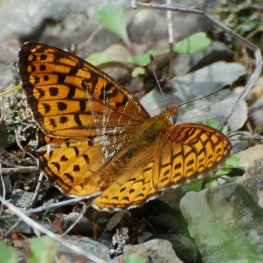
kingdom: Animalia
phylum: Arthropoda
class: Insecta
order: Lepidoptera
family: Nymphalidae
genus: Speyeria
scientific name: Speyeria atlantis
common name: Atlantis Fritillary
